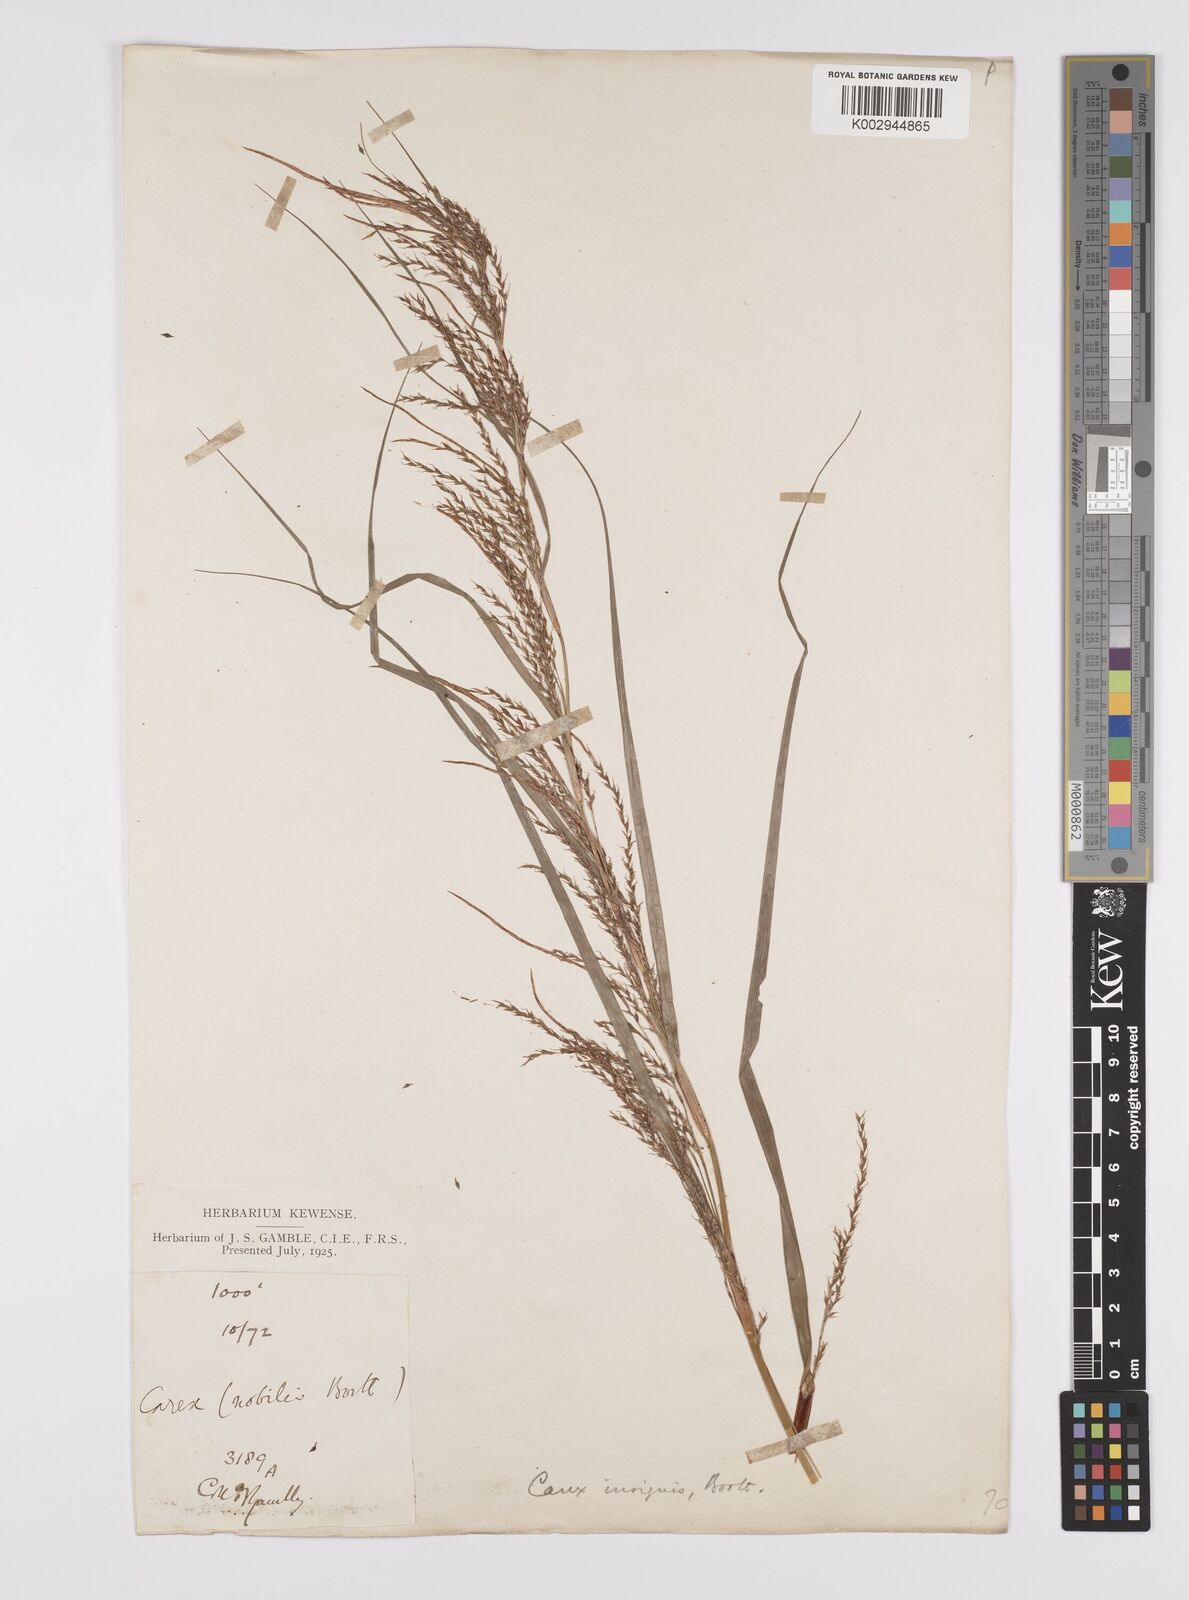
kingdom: Plantae
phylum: Tracheophyta
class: Liliopsida
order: Poales
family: Cyperaceae
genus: Carex
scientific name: Carex insignis
